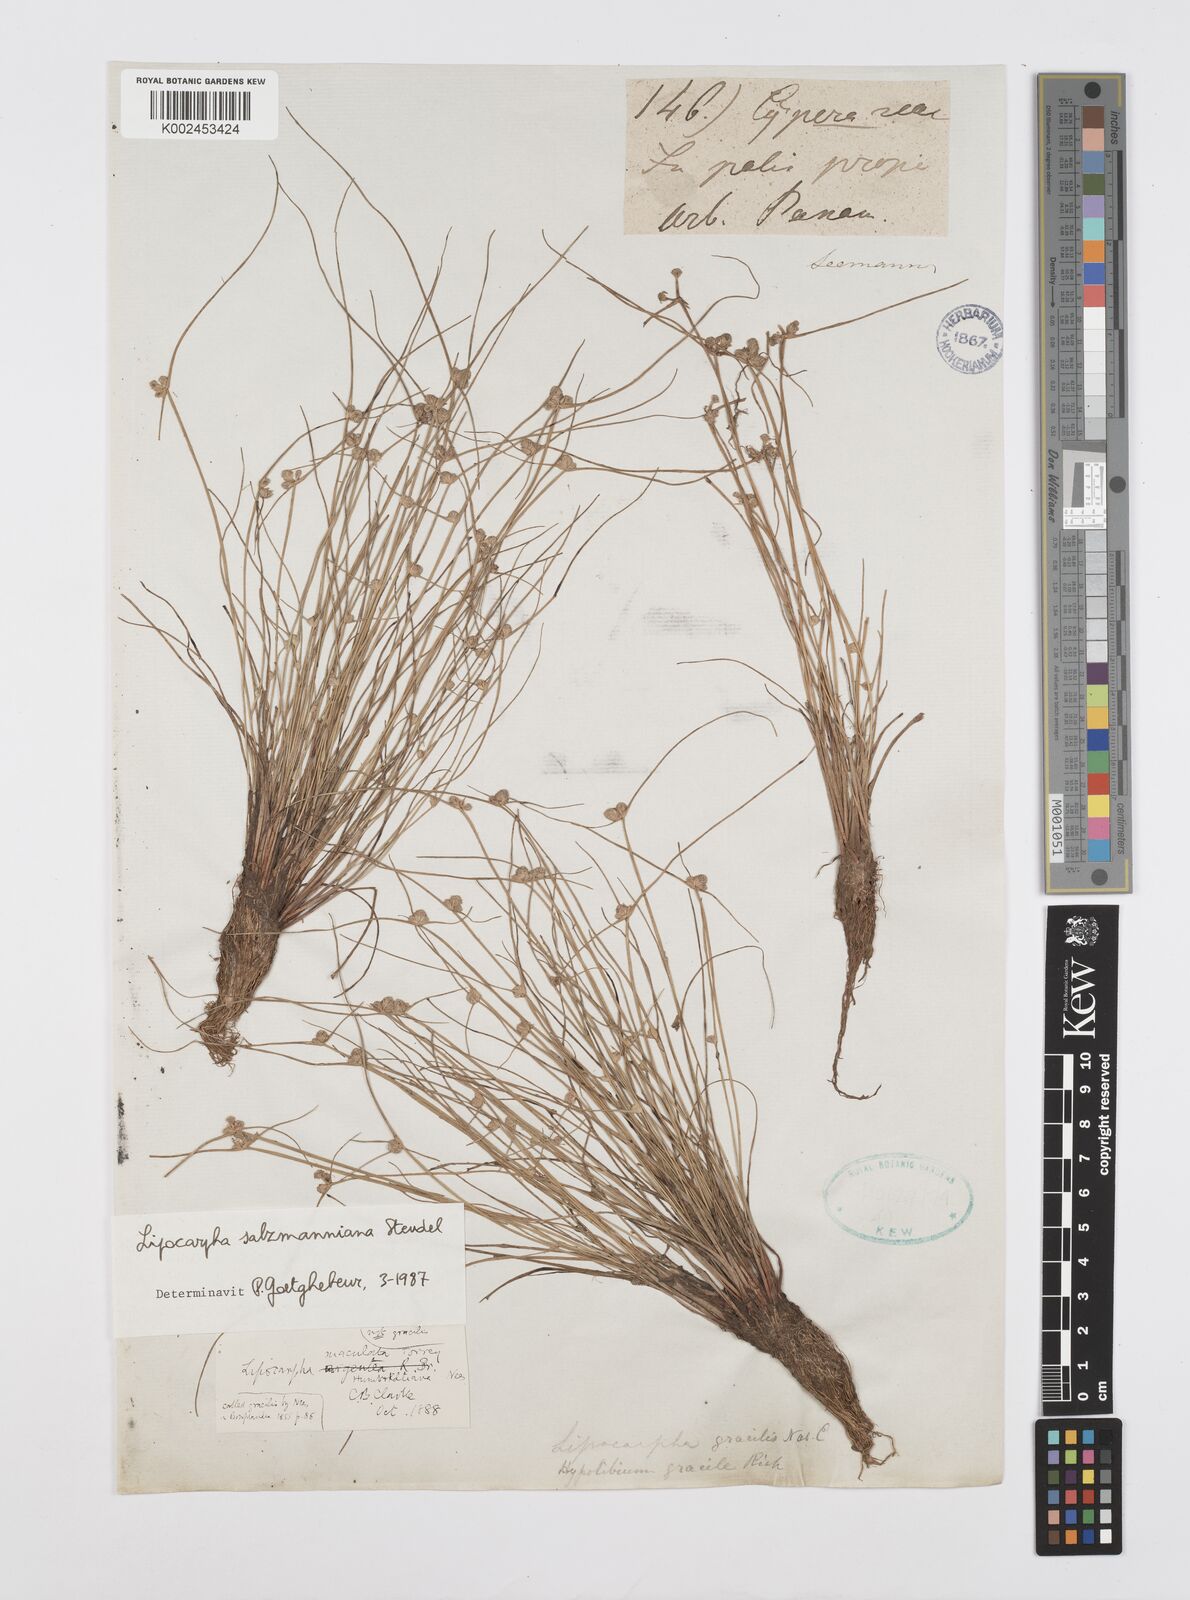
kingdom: Plantae
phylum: Tracheophyta
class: Liliopsida
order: Poales
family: Cyperaceae
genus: Cyperus
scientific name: Cyperus salzmannianus
